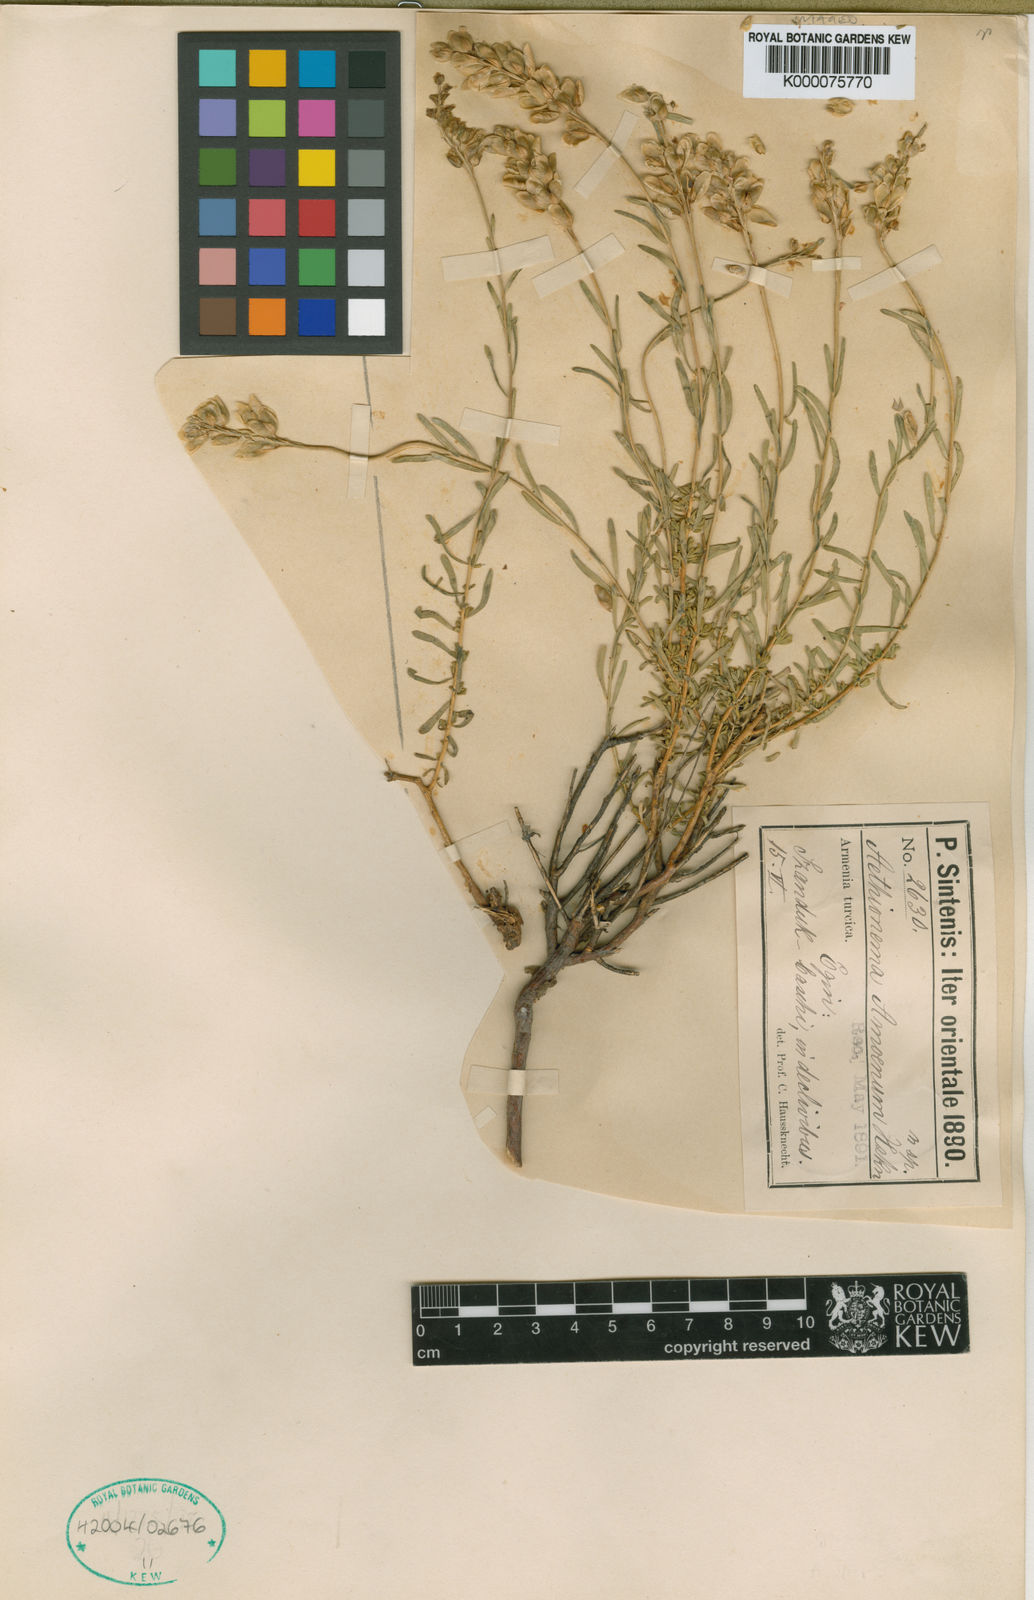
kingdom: Plantae
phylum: Tracheophyta
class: Magnoliopsida
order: Brassicales
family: Brassicaceae
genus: Aethionema
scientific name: Aethionema grandiflorum
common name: Persian stonecress
